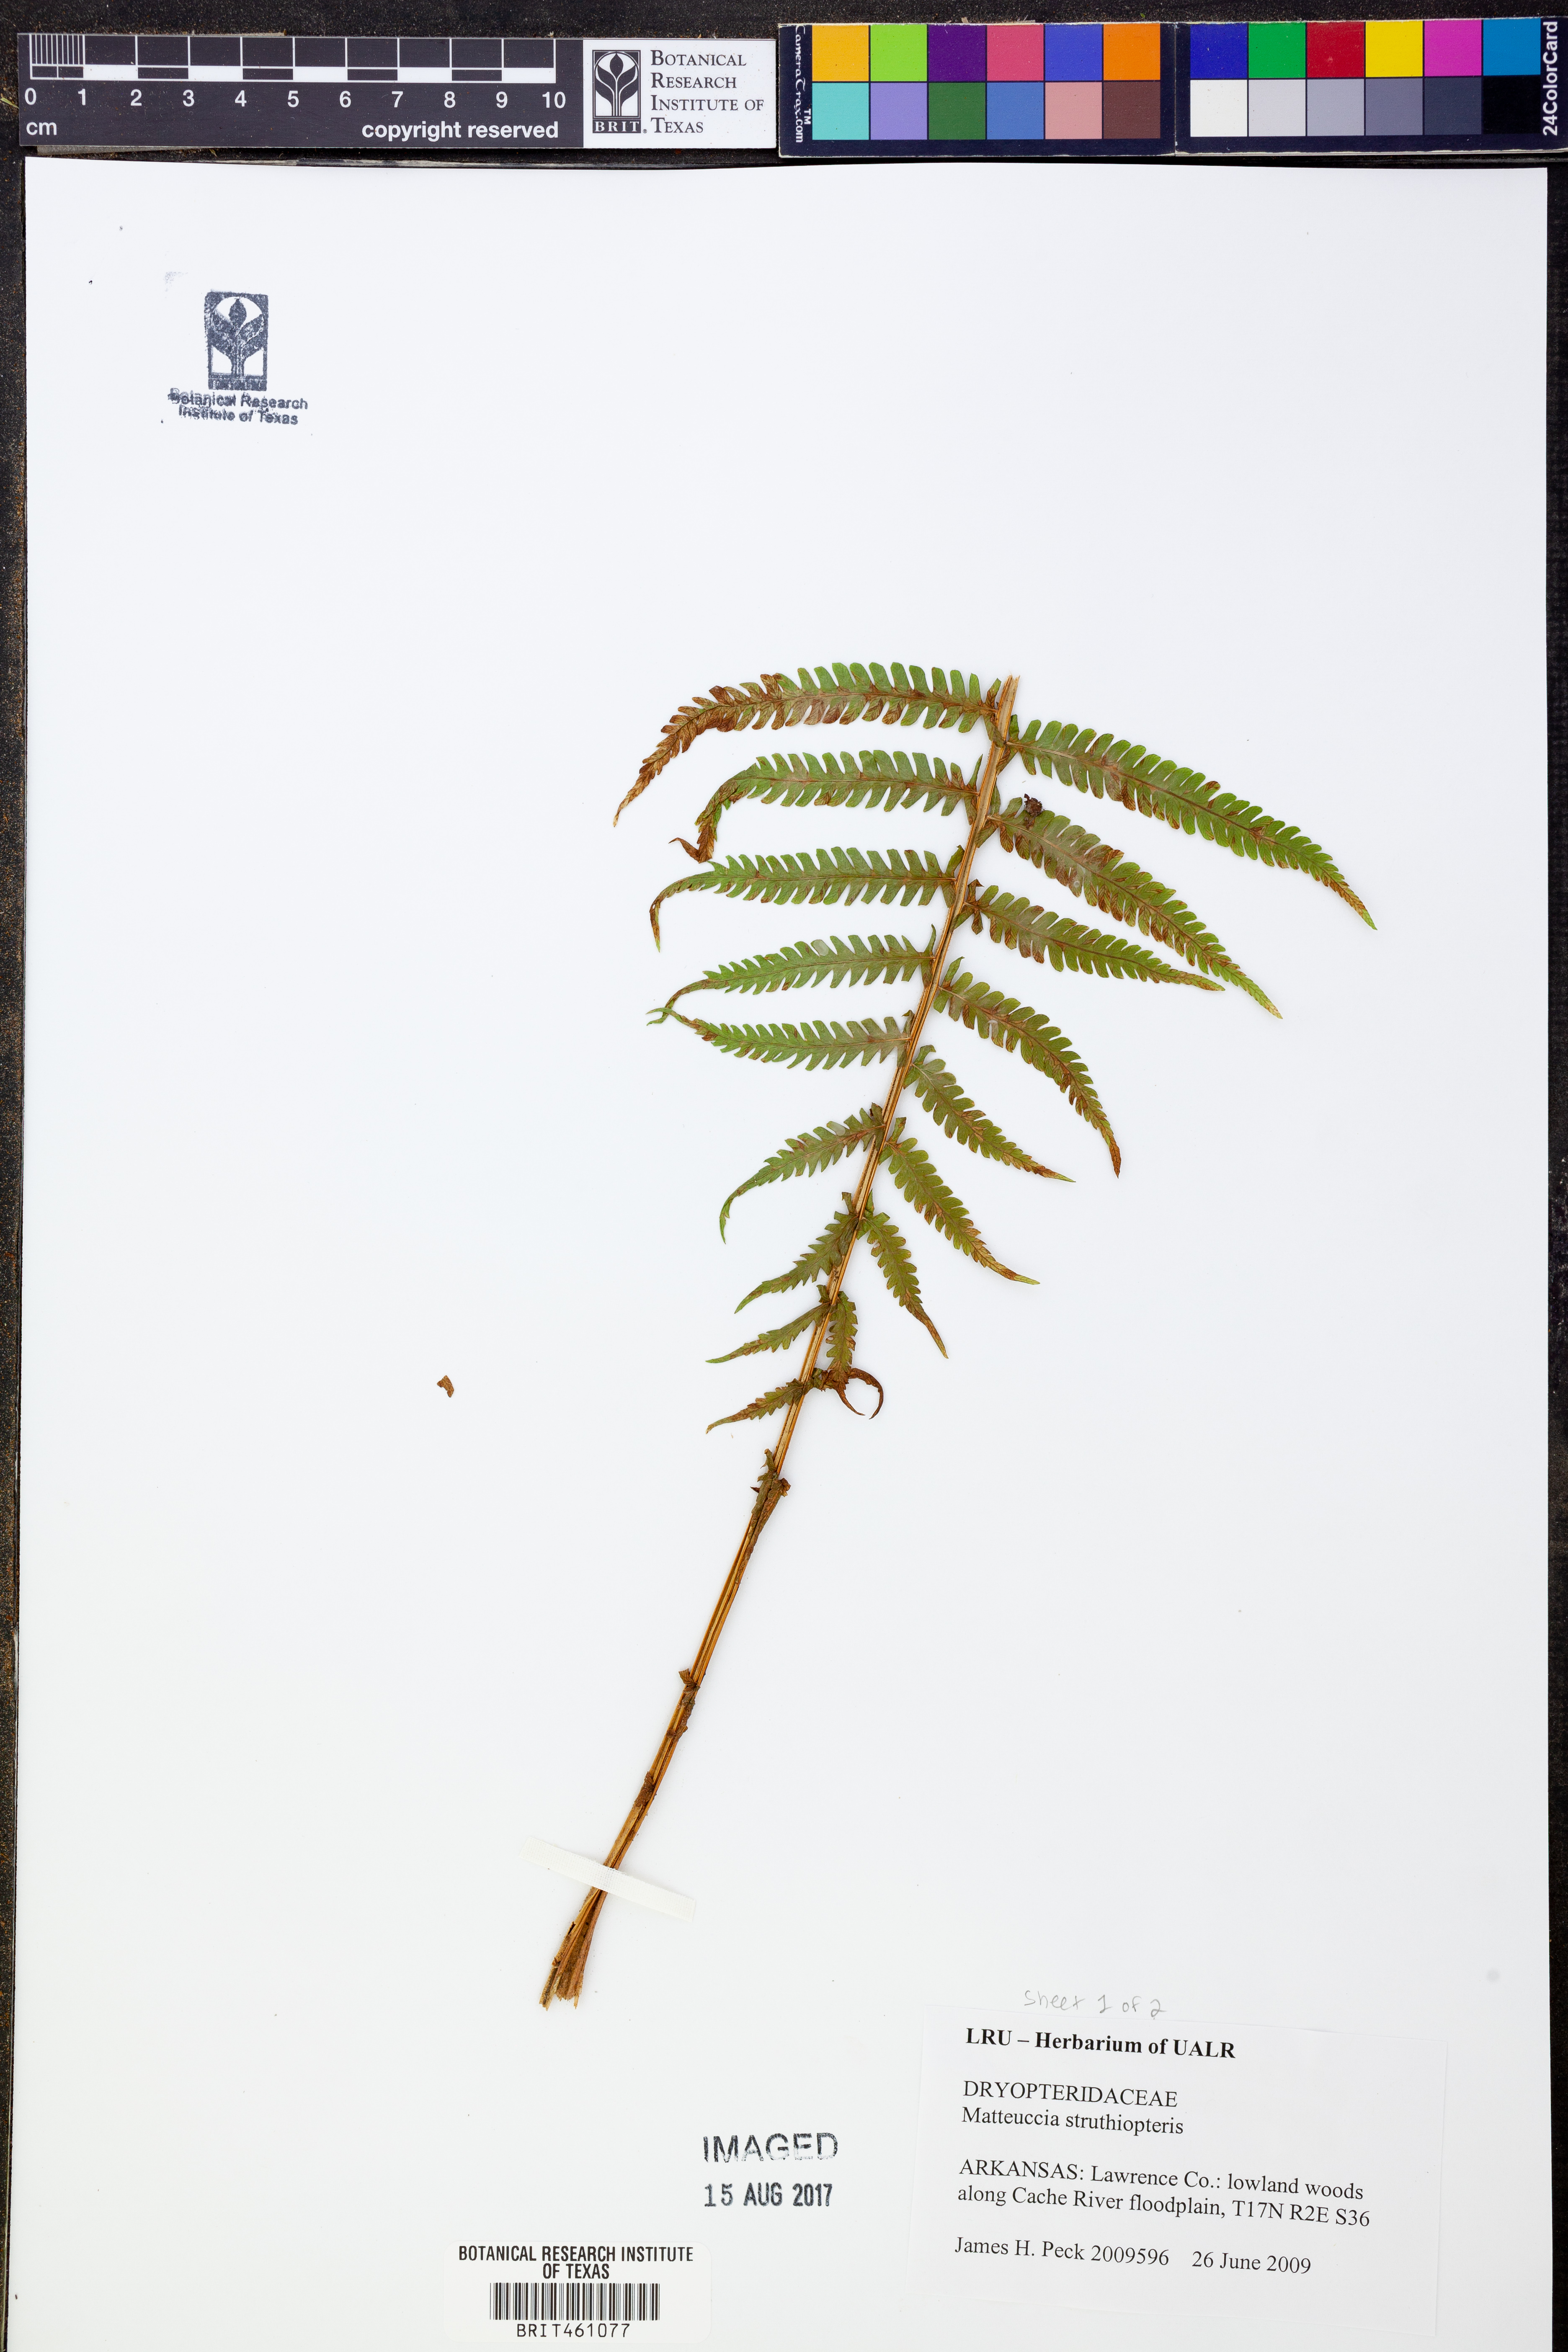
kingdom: Plantae
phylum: Tracheophyta
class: Polypodiopsida
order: Polypodiales
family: Onocleaceae
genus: Matteuccia
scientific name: Matteuccia struthiopteris
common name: Ostrich fern
